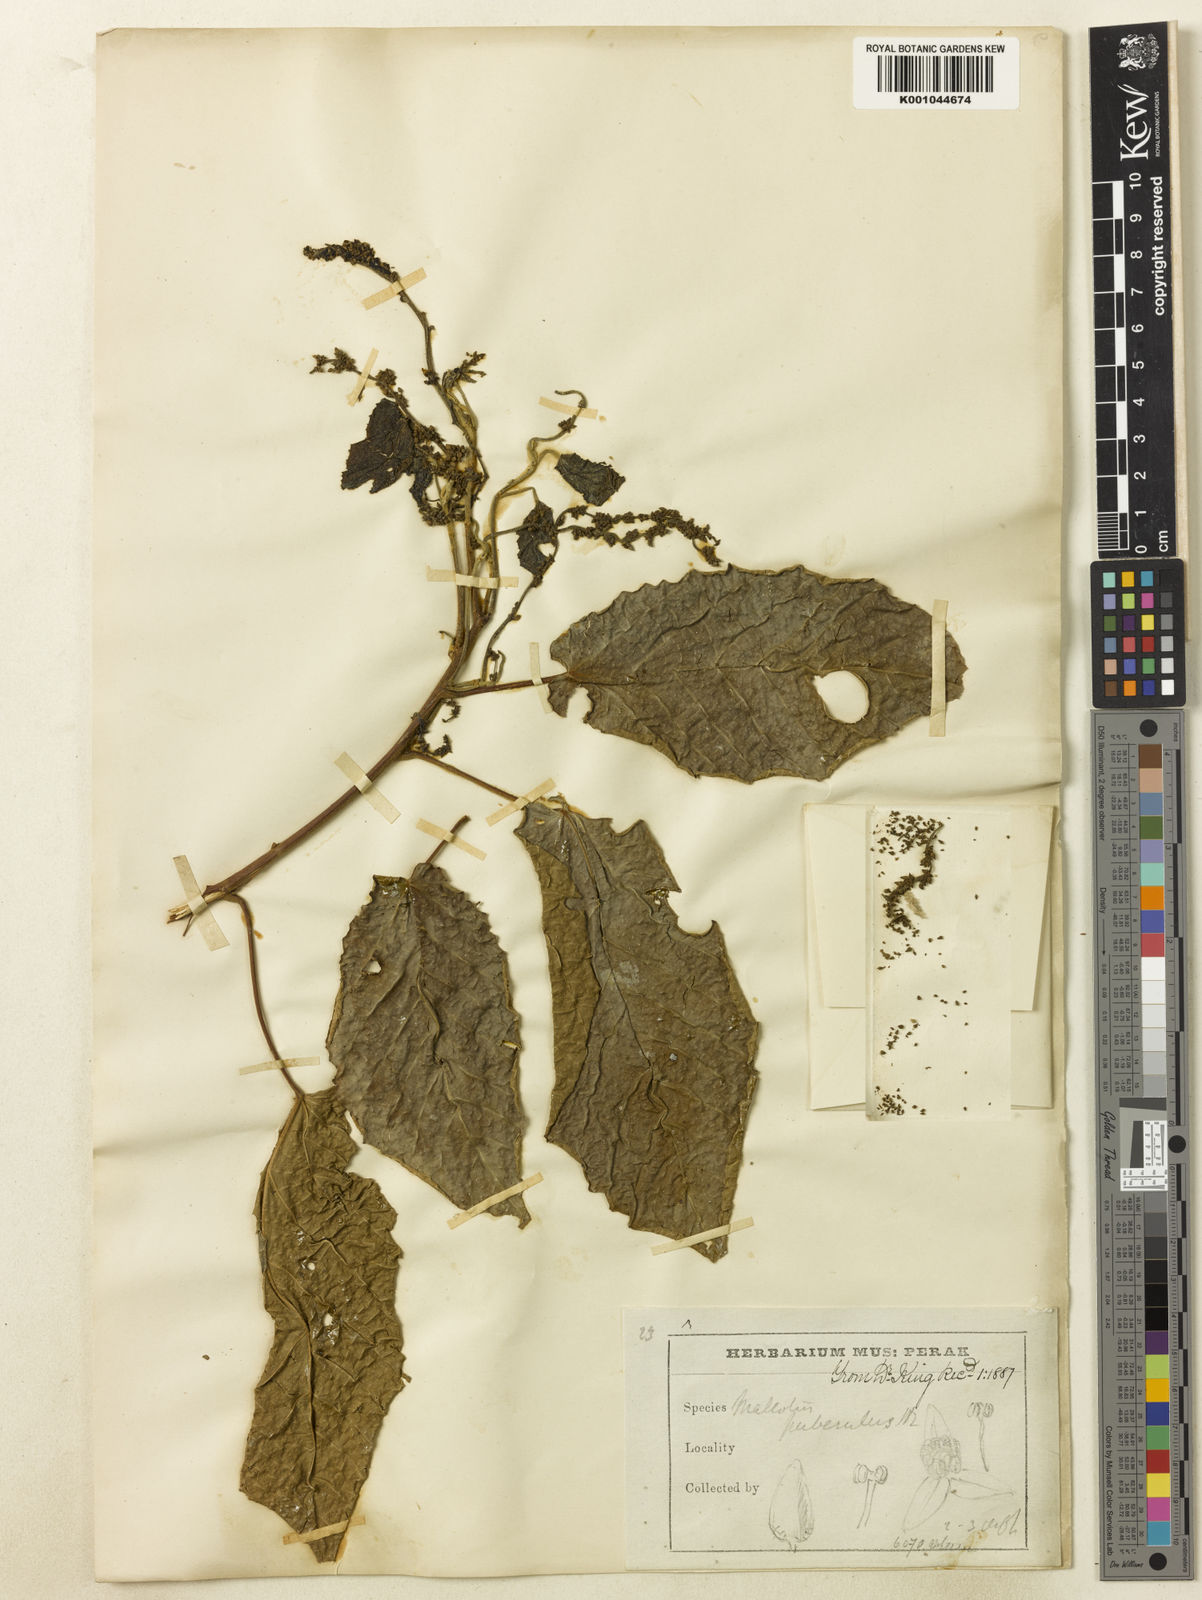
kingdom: Plantae
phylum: Tracheophyta
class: Magnoliopsida
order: Malpighiales
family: Euphorbiaceae
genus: Mallotus
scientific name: Mallotus peltatus
